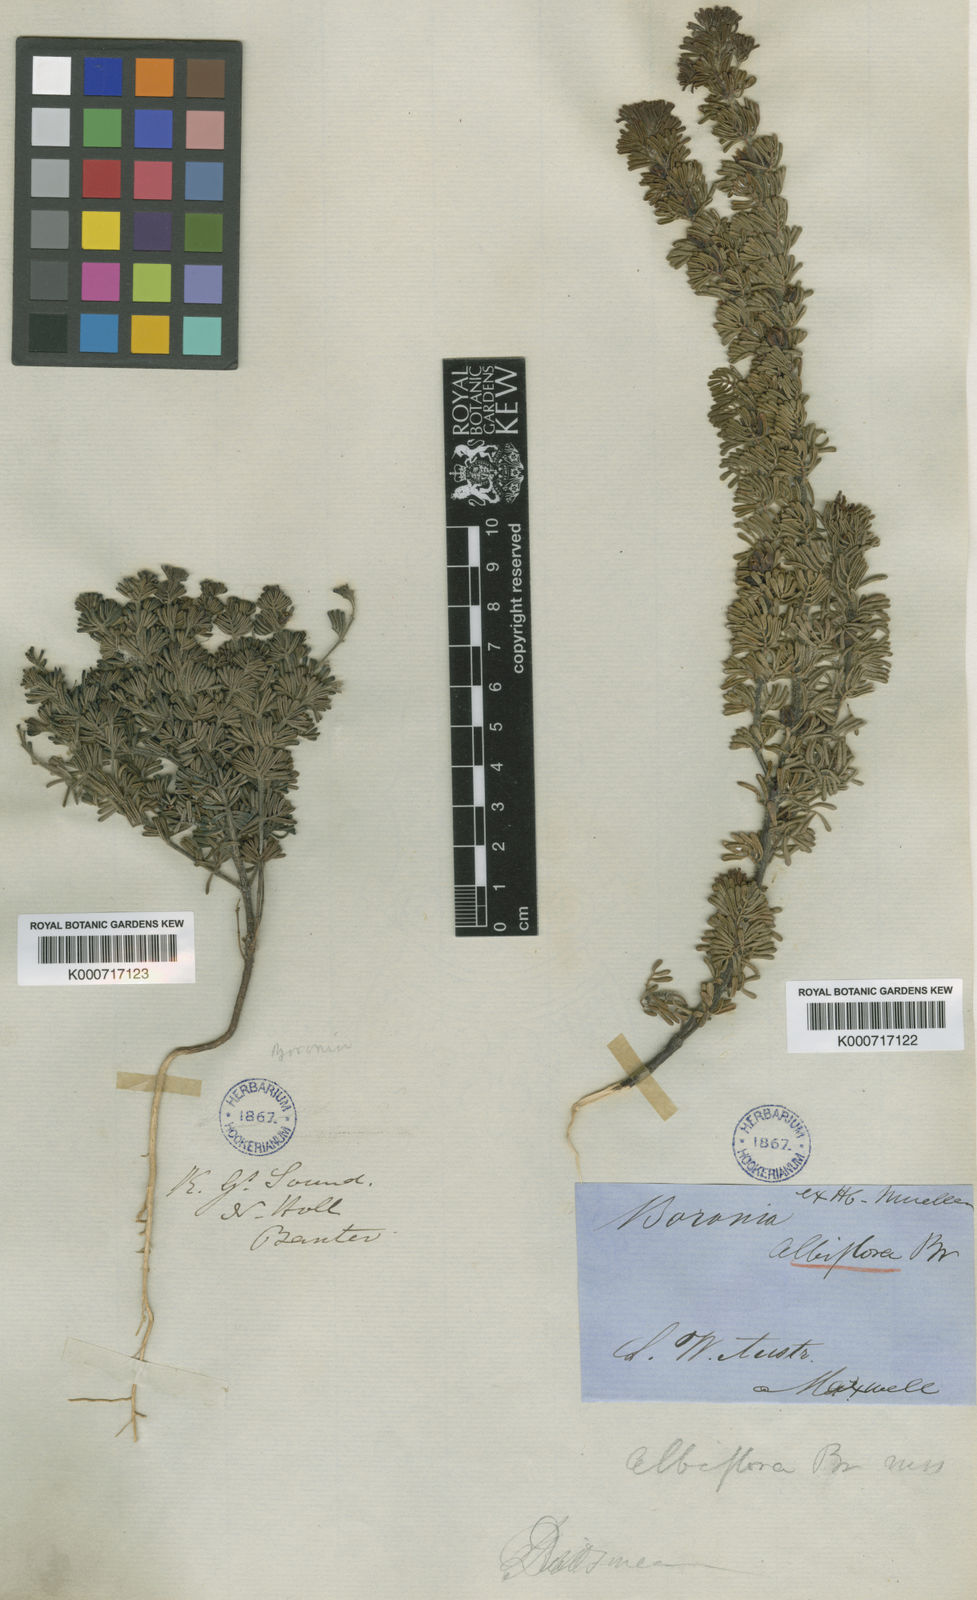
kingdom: Plantae
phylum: Tracheophyta
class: Magnoliopsida
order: Sapindales
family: Rutaceae
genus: Boronia
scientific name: Boronia albiflora
